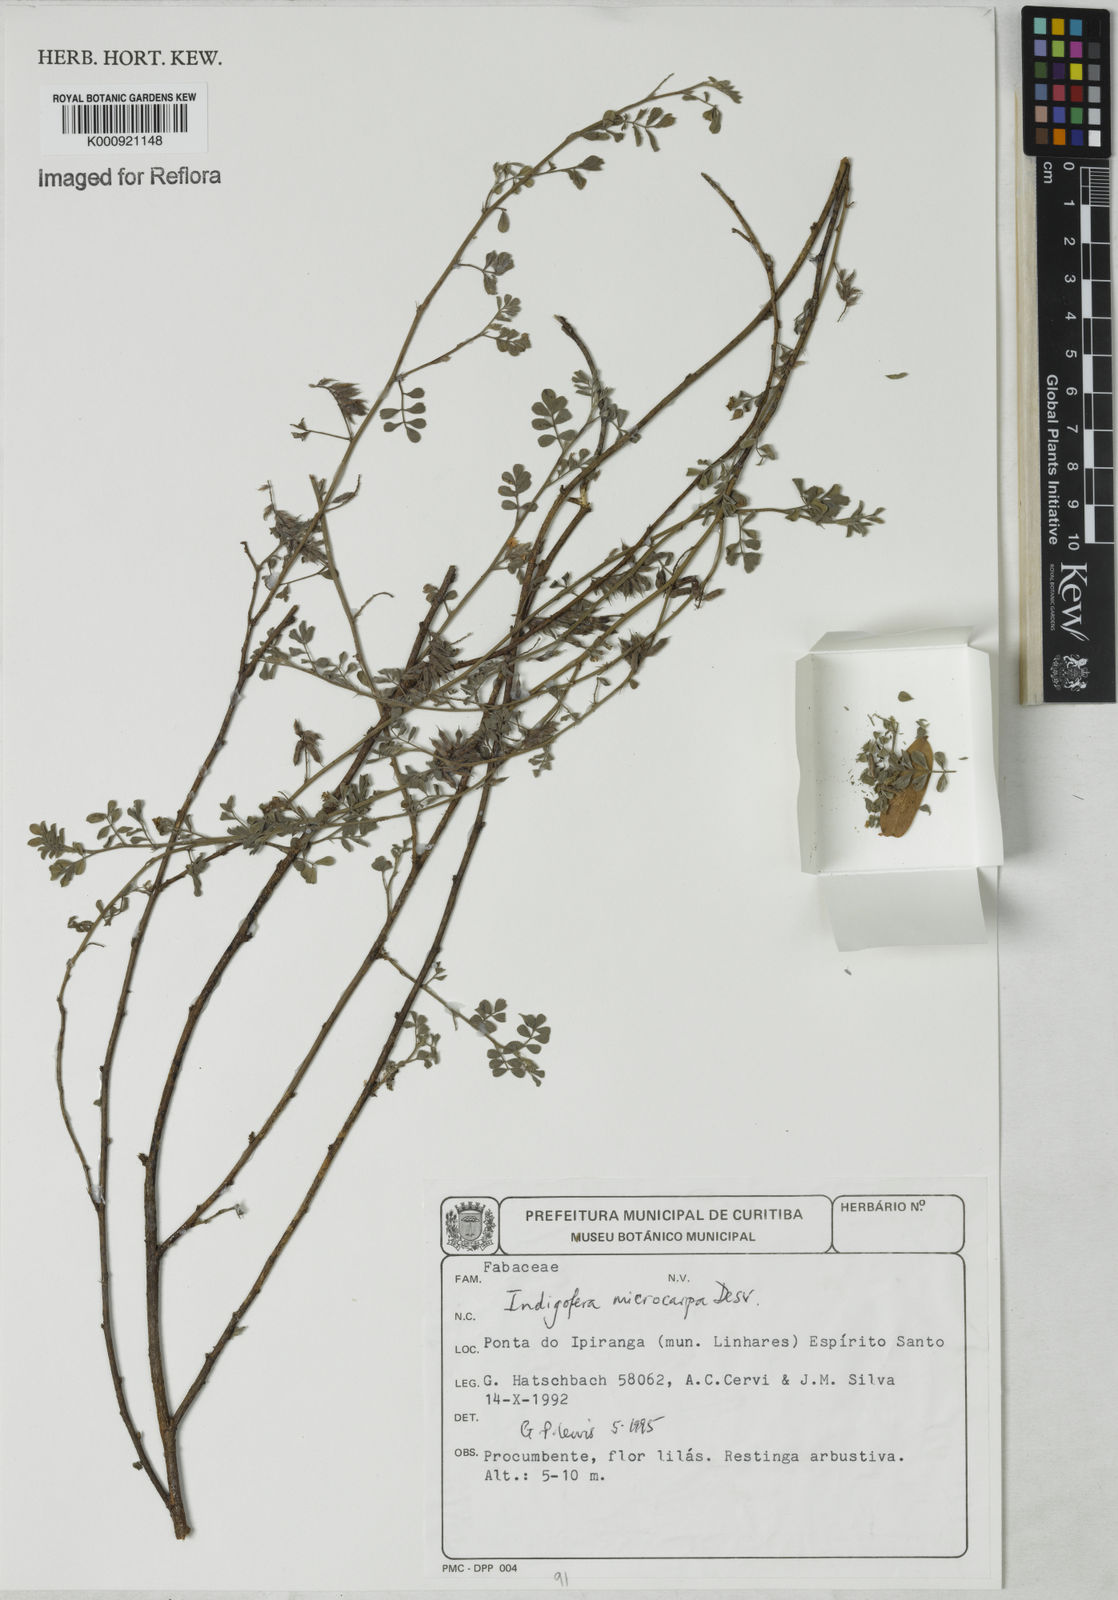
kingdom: Plantae
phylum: Tracheophyta
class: Magnoliopsida
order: Fabales
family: Fabaceae
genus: Indigofera
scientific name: Indigofera microcarpa
